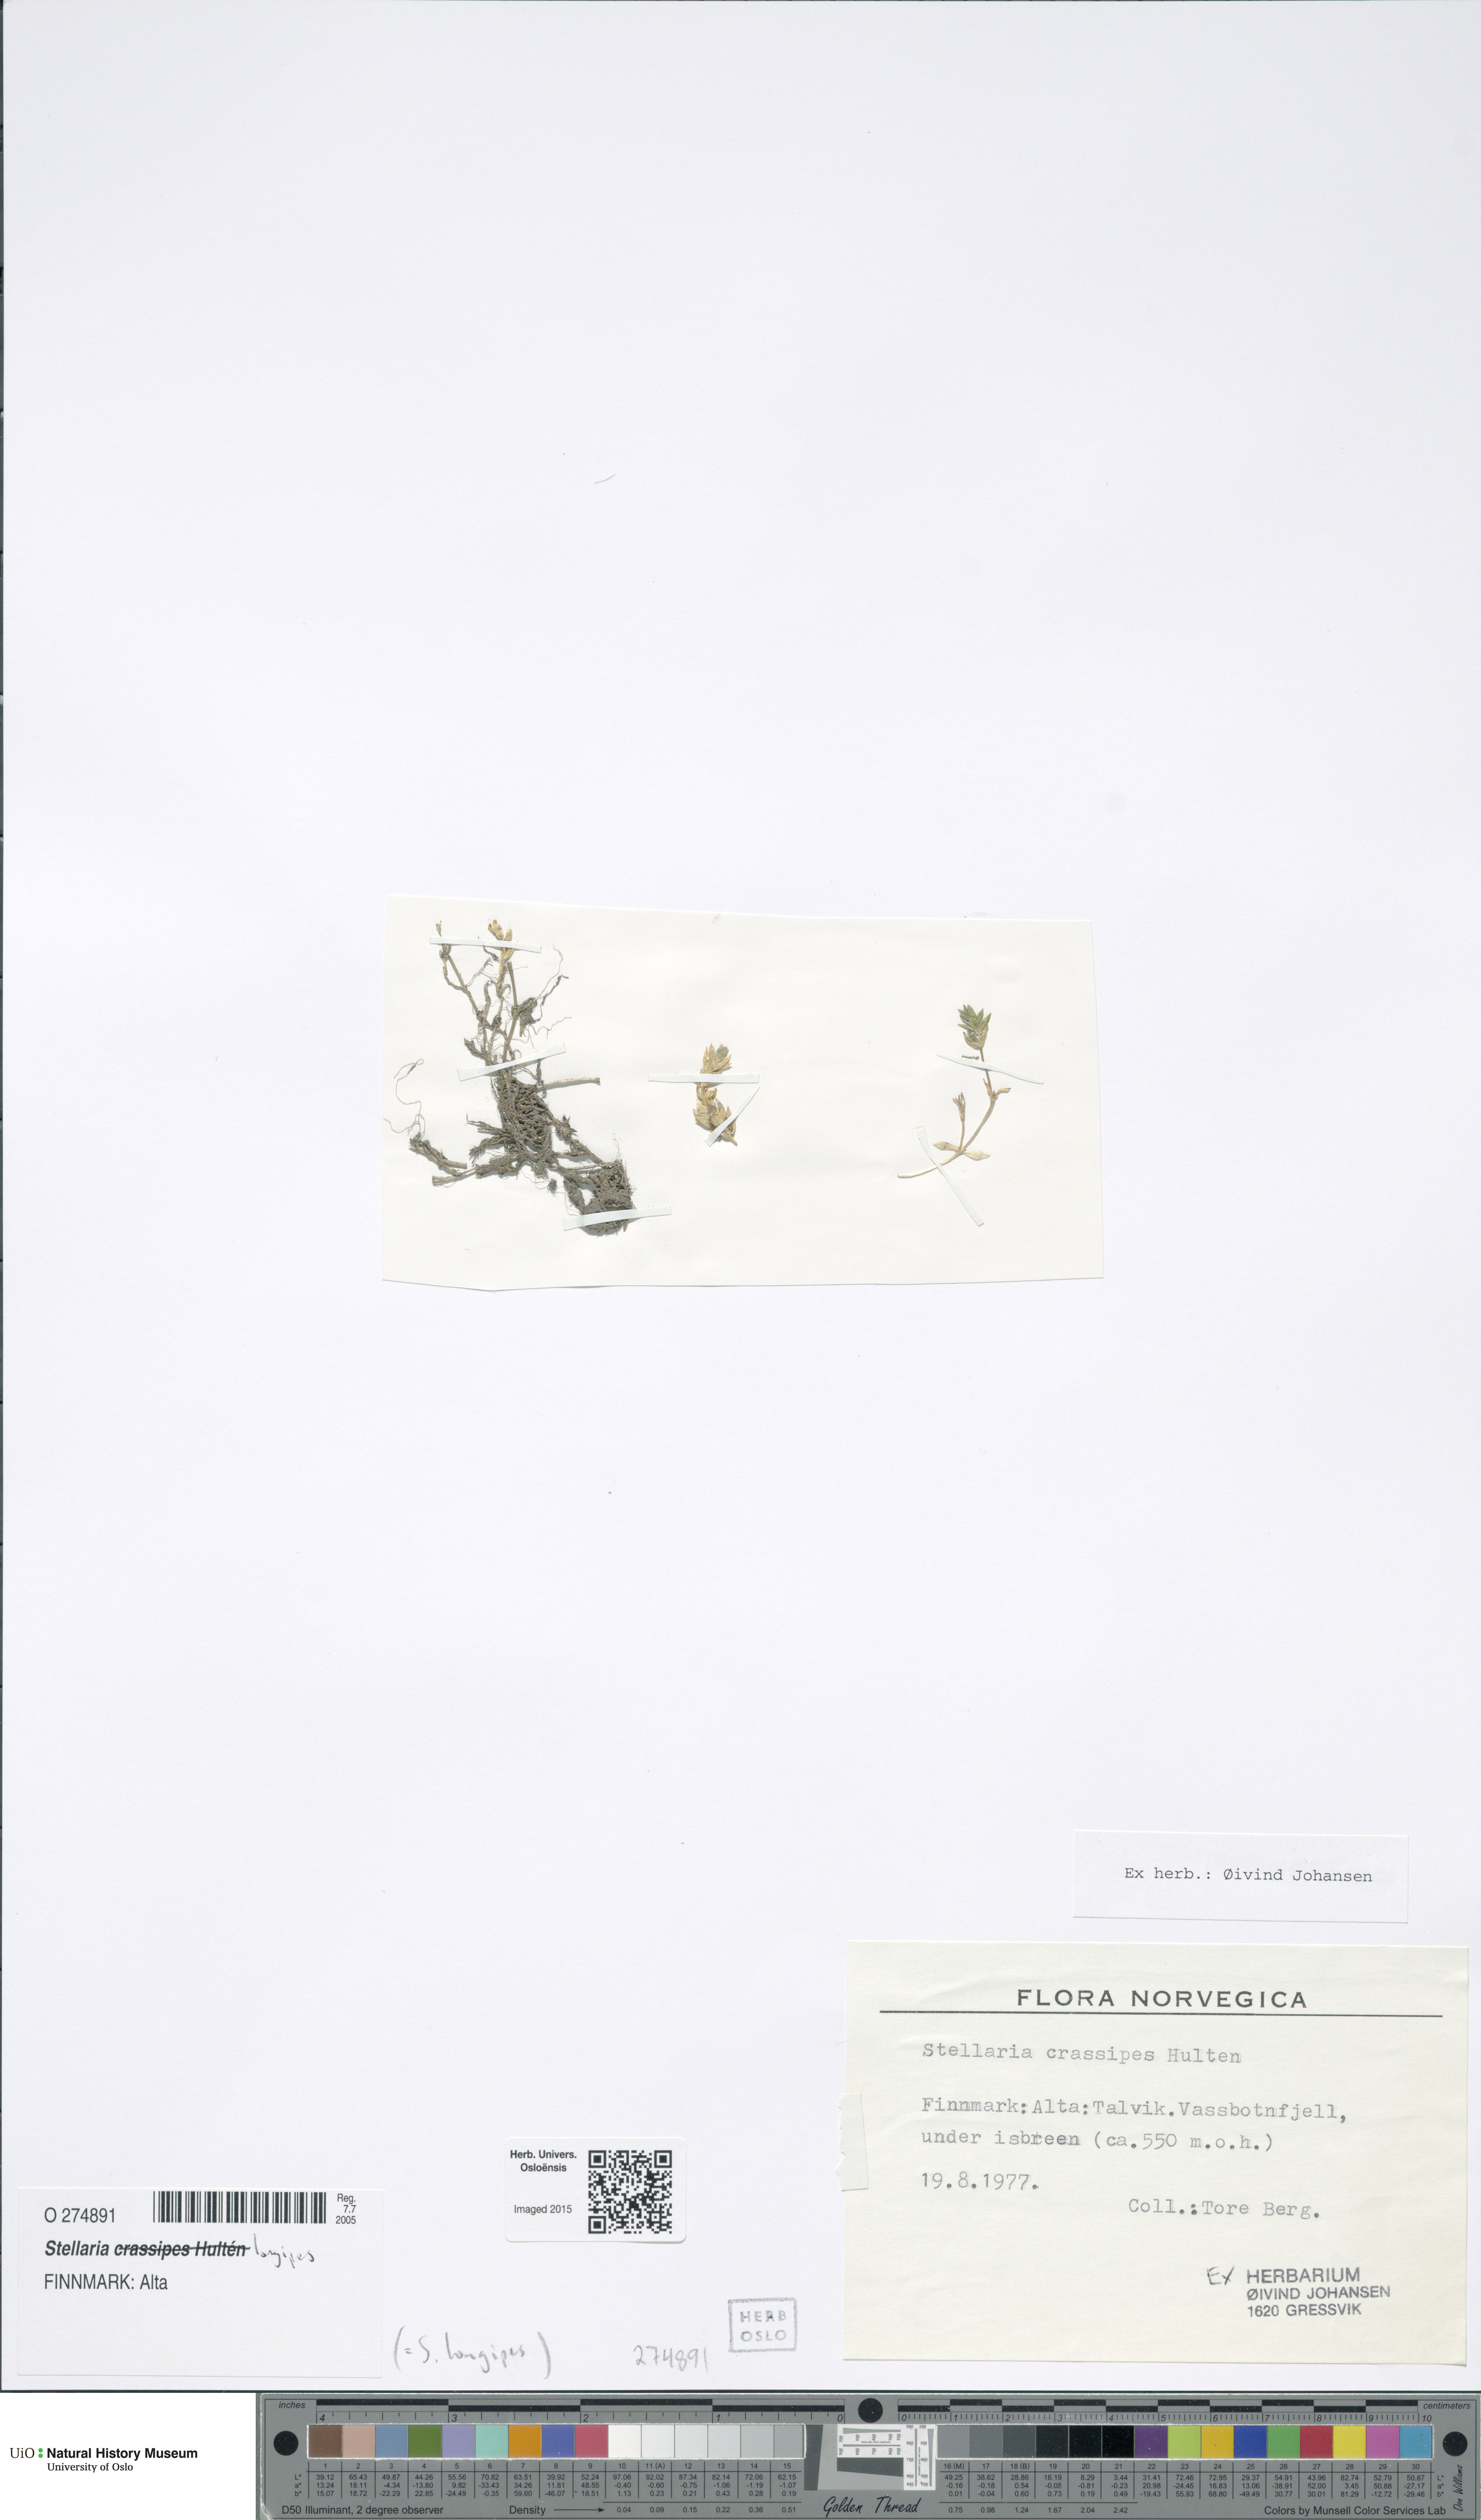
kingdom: Plantae
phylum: Tracheophyta
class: Magnoliopsida
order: Caryophyllales
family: Caryophyllaceae
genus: Stellaria
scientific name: Stellaria longipes
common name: Goldie's starwort
